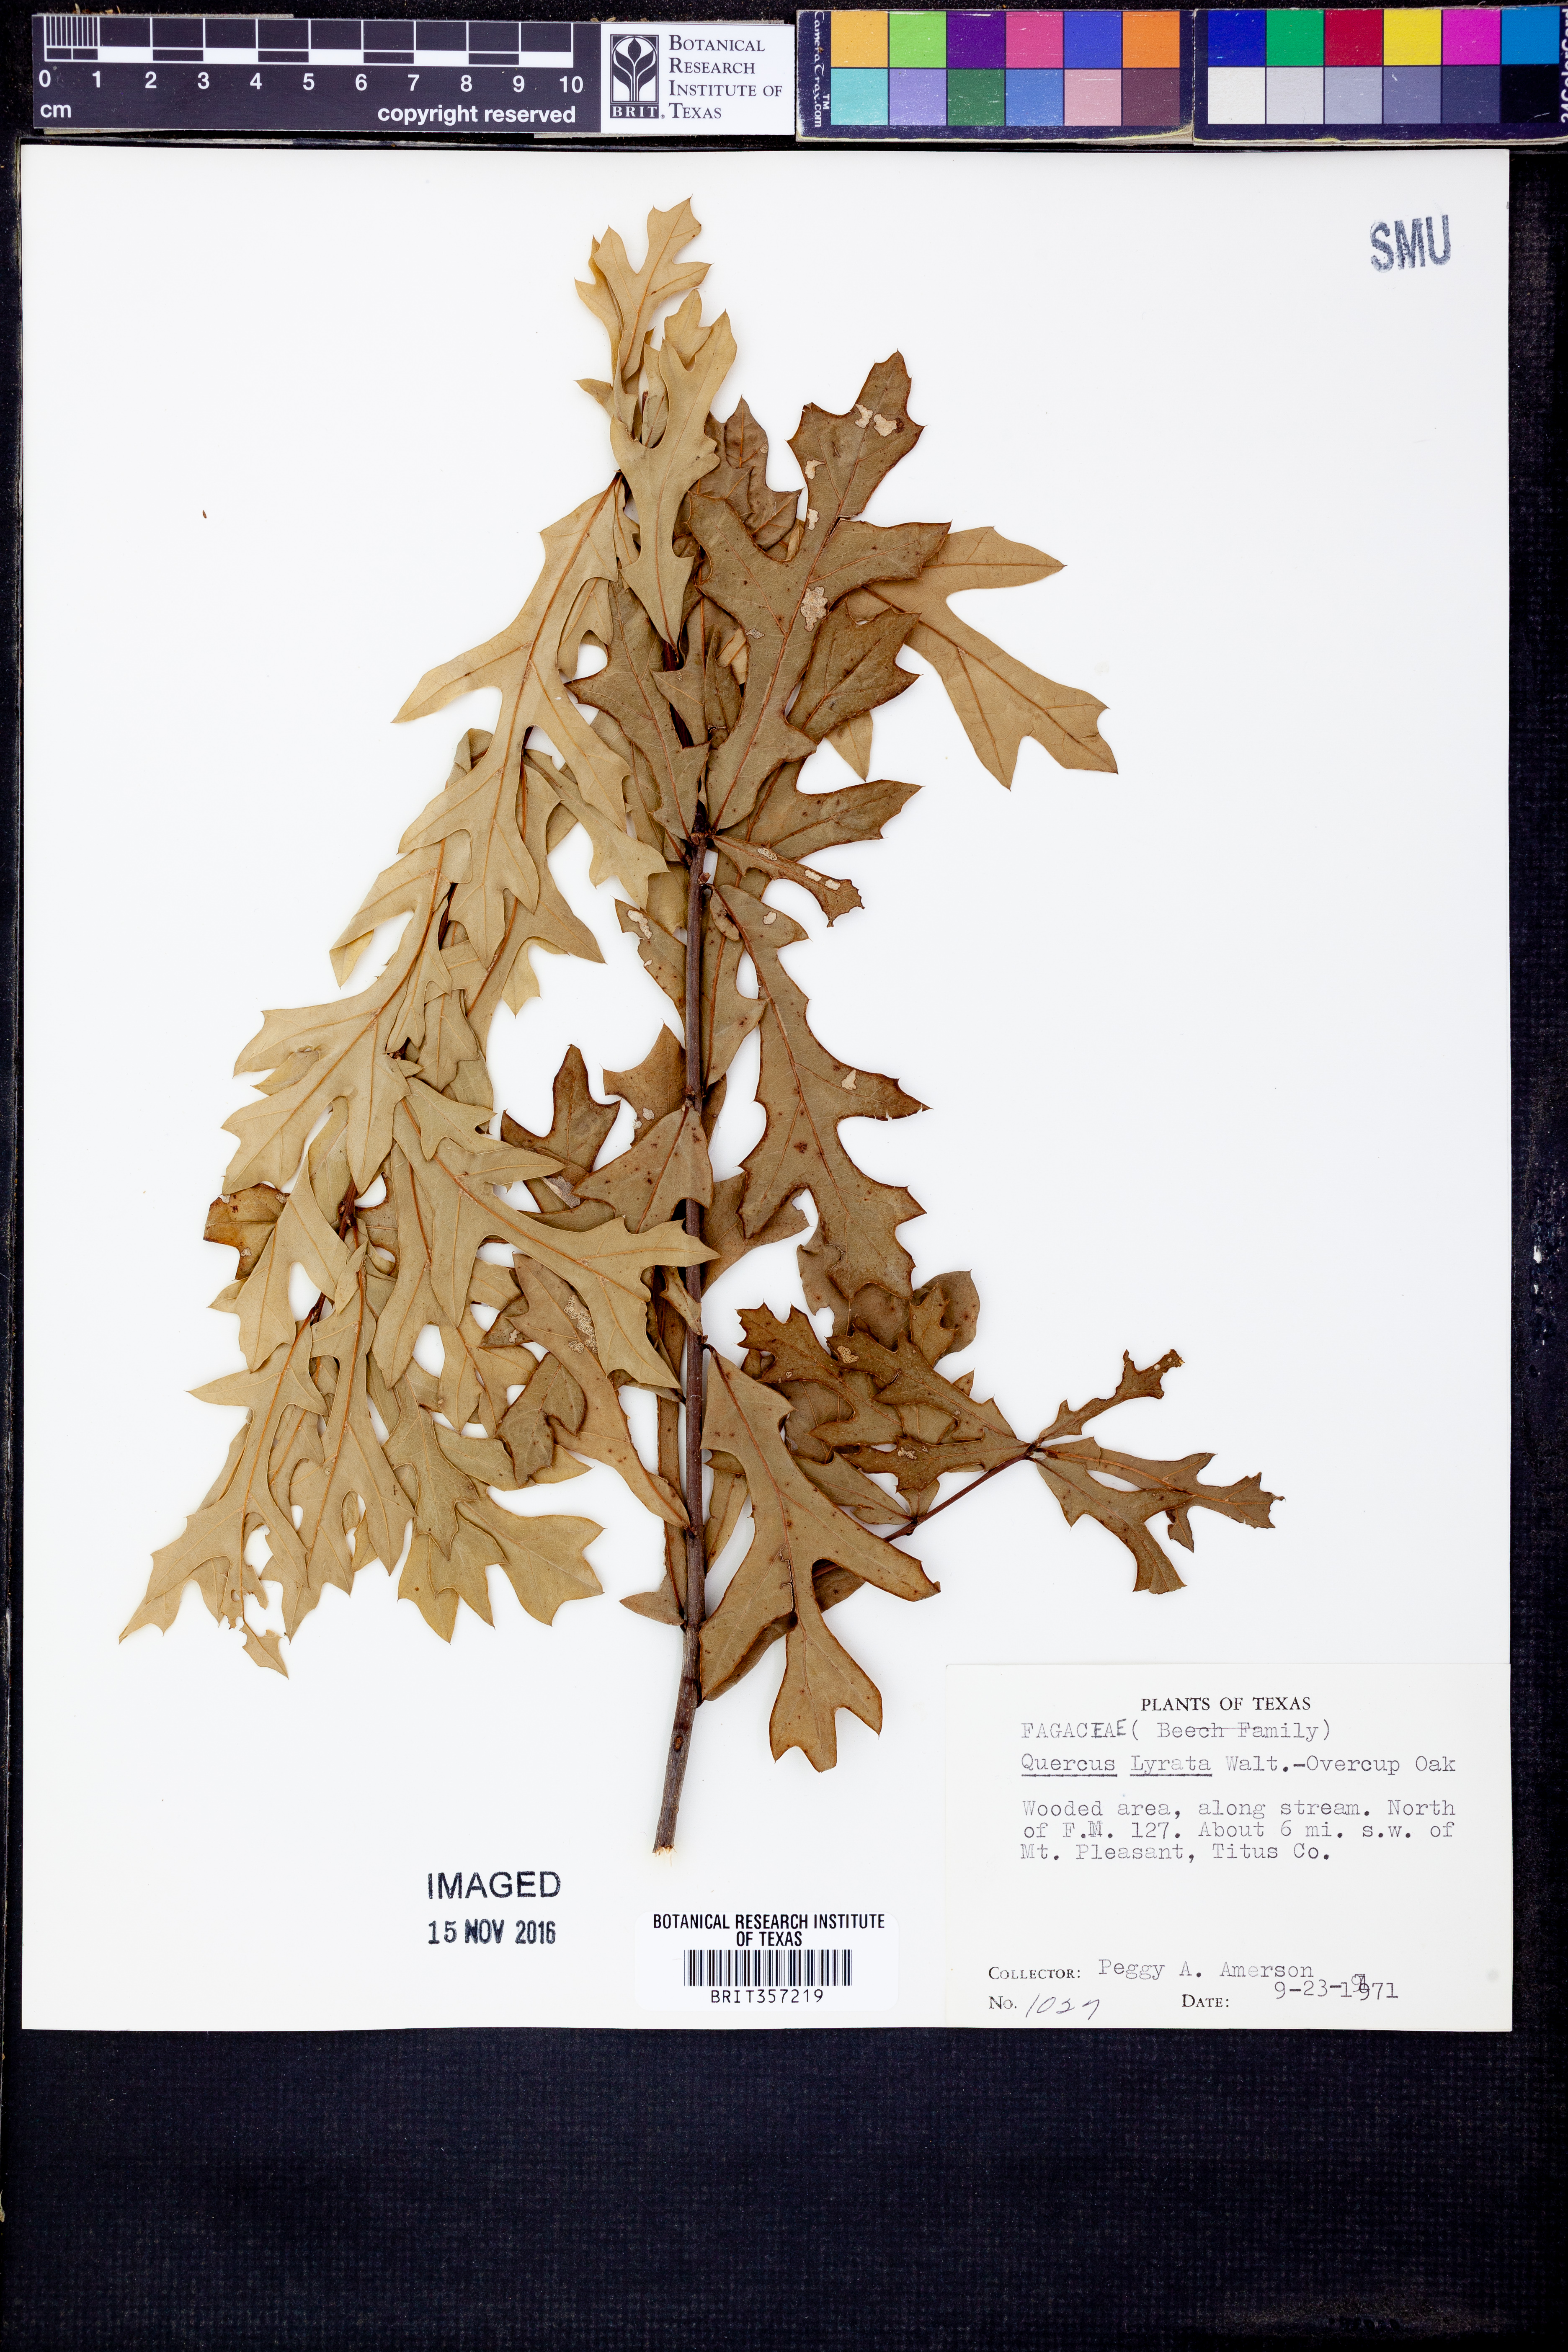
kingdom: Plantae
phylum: Tracheophyta
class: Magnoliopsida
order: Fagales
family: Fagaceae
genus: Quercus
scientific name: Quercus lyrata
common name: Overcup oak
